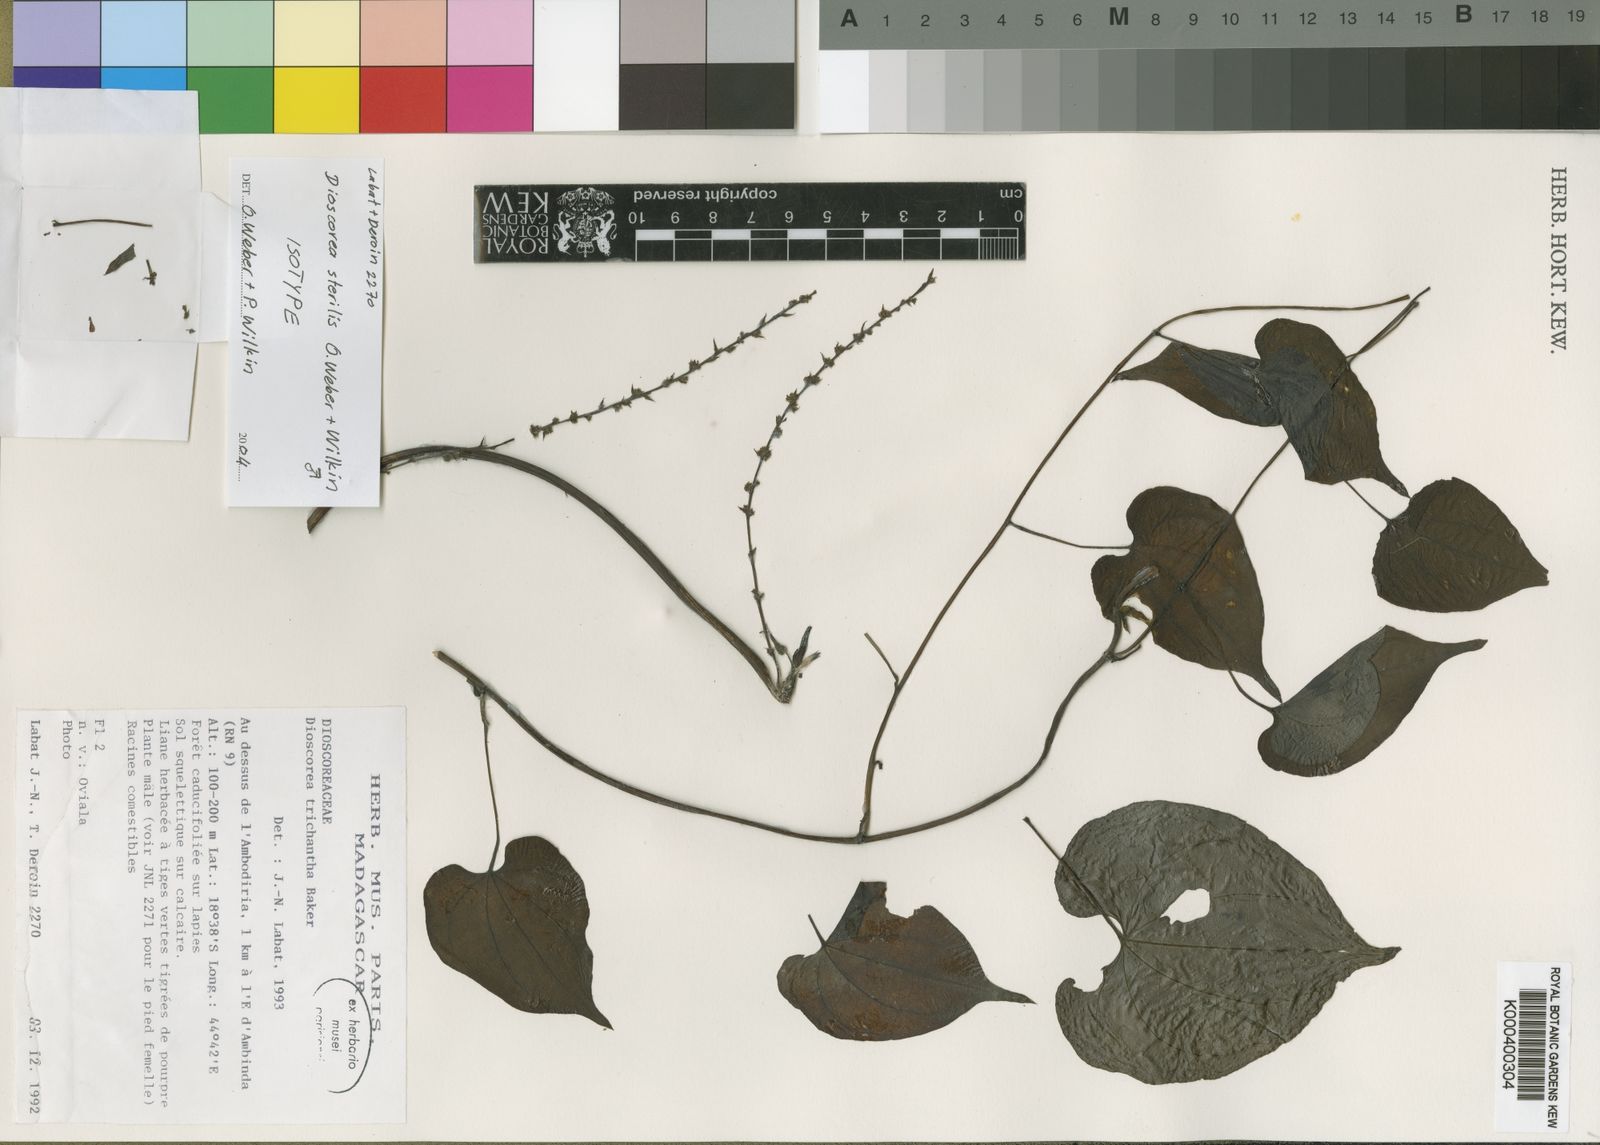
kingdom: Plantae
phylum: Tracheophyta
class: Liliopsida
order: Dioscoreales
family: Dioscoreaceae
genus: Dioscorea
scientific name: Dioscorea sterilis
